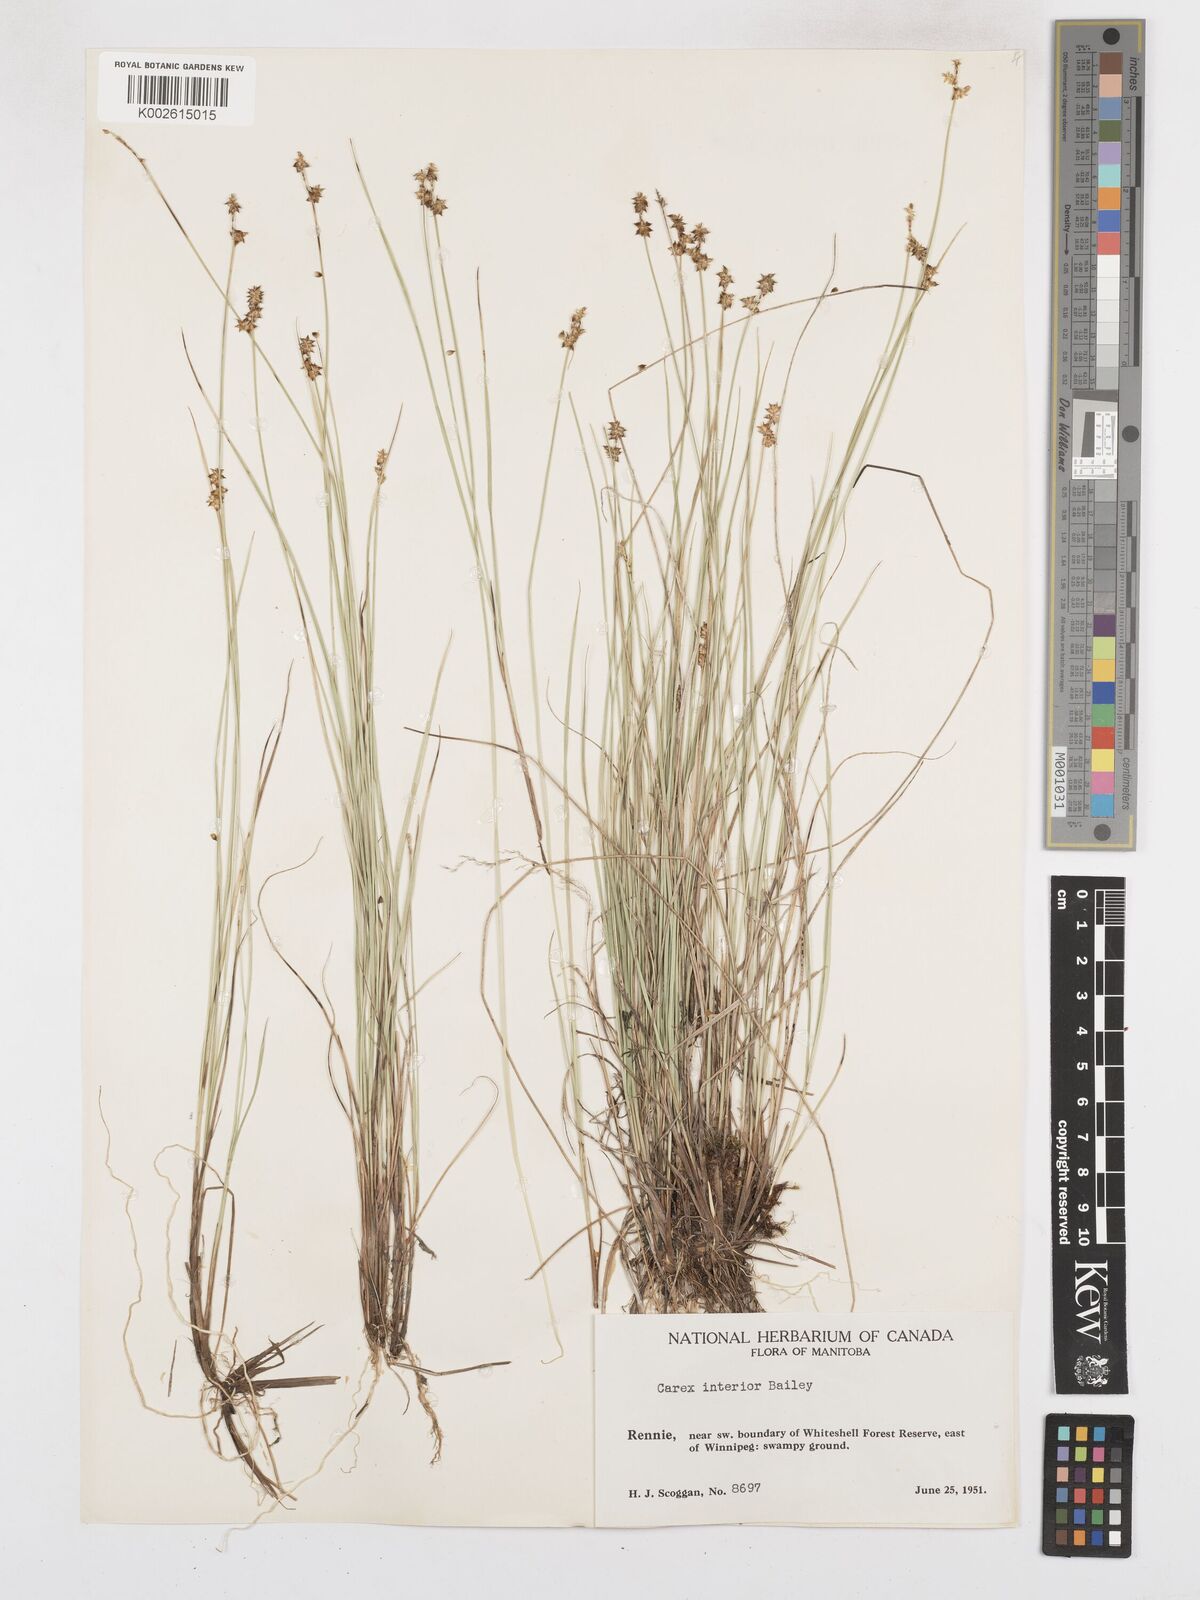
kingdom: Plantae
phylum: Tracheophyta
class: Liliopsida
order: Poales
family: Cyperaceae
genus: Carex
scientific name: Carex interior
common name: Inland sedge
